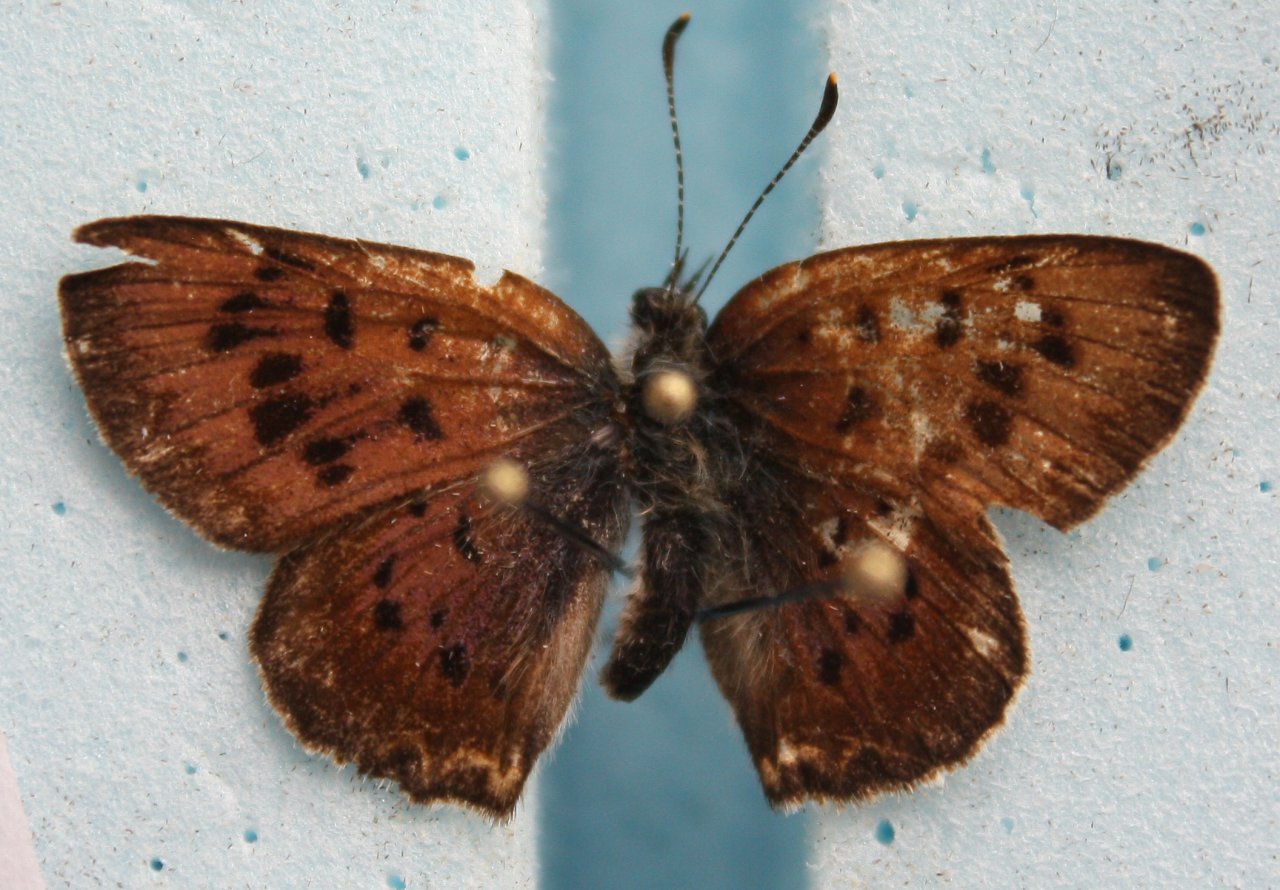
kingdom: Animalia
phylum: Arthropoda
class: Insecta
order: Lepidoptera
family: Sesiidae
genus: Sesia
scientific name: Sesia Lycaena epixanthe
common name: Bog Copper
